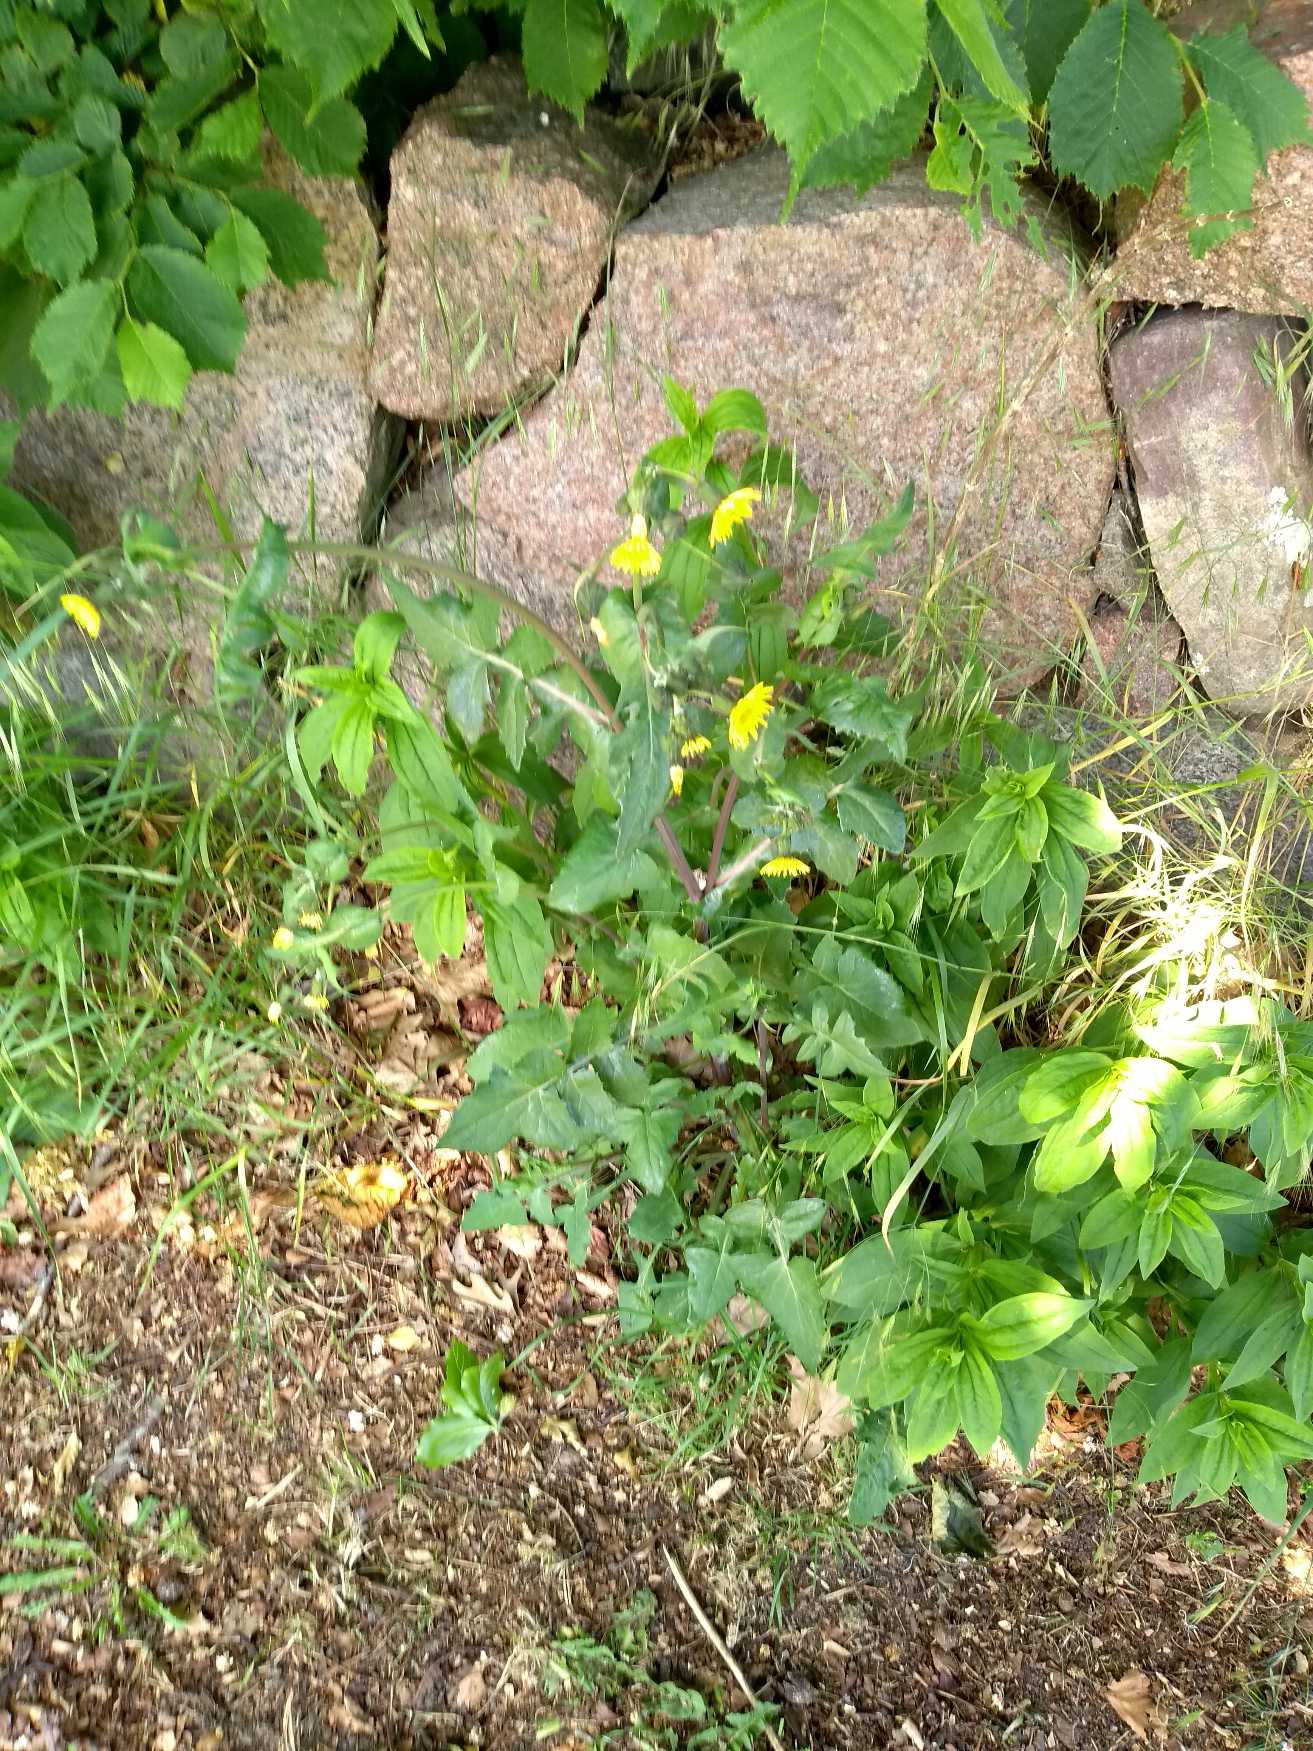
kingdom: Plantae
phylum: Tracheophyta
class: Magnoliopsida
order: Asterales
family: Asteraceae
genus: Sonchus
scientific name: Sonchus arvensis
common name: Ager-svinemælk
